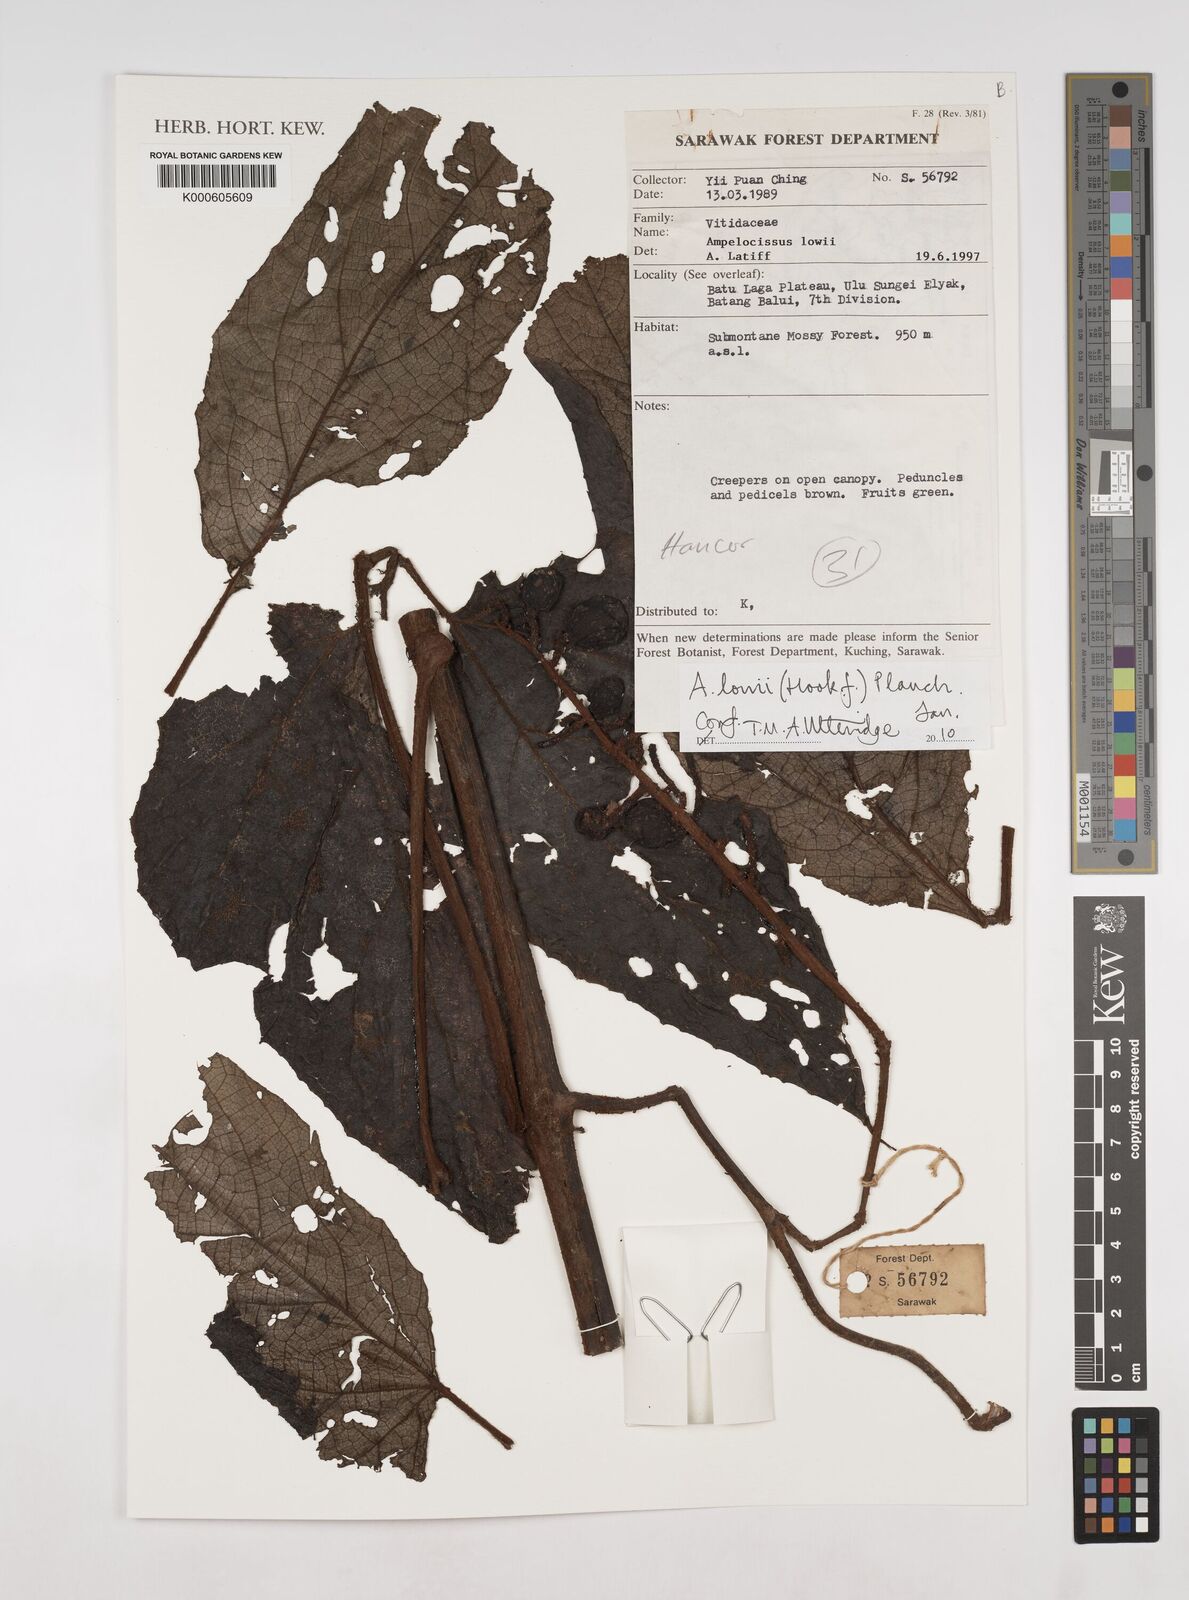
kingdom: Plantae
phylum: Tracheophyta
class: Magnoliopsida
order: Vitales
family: Vitaceae
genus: Ampelocissus
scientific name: Ampelocissus lowii
